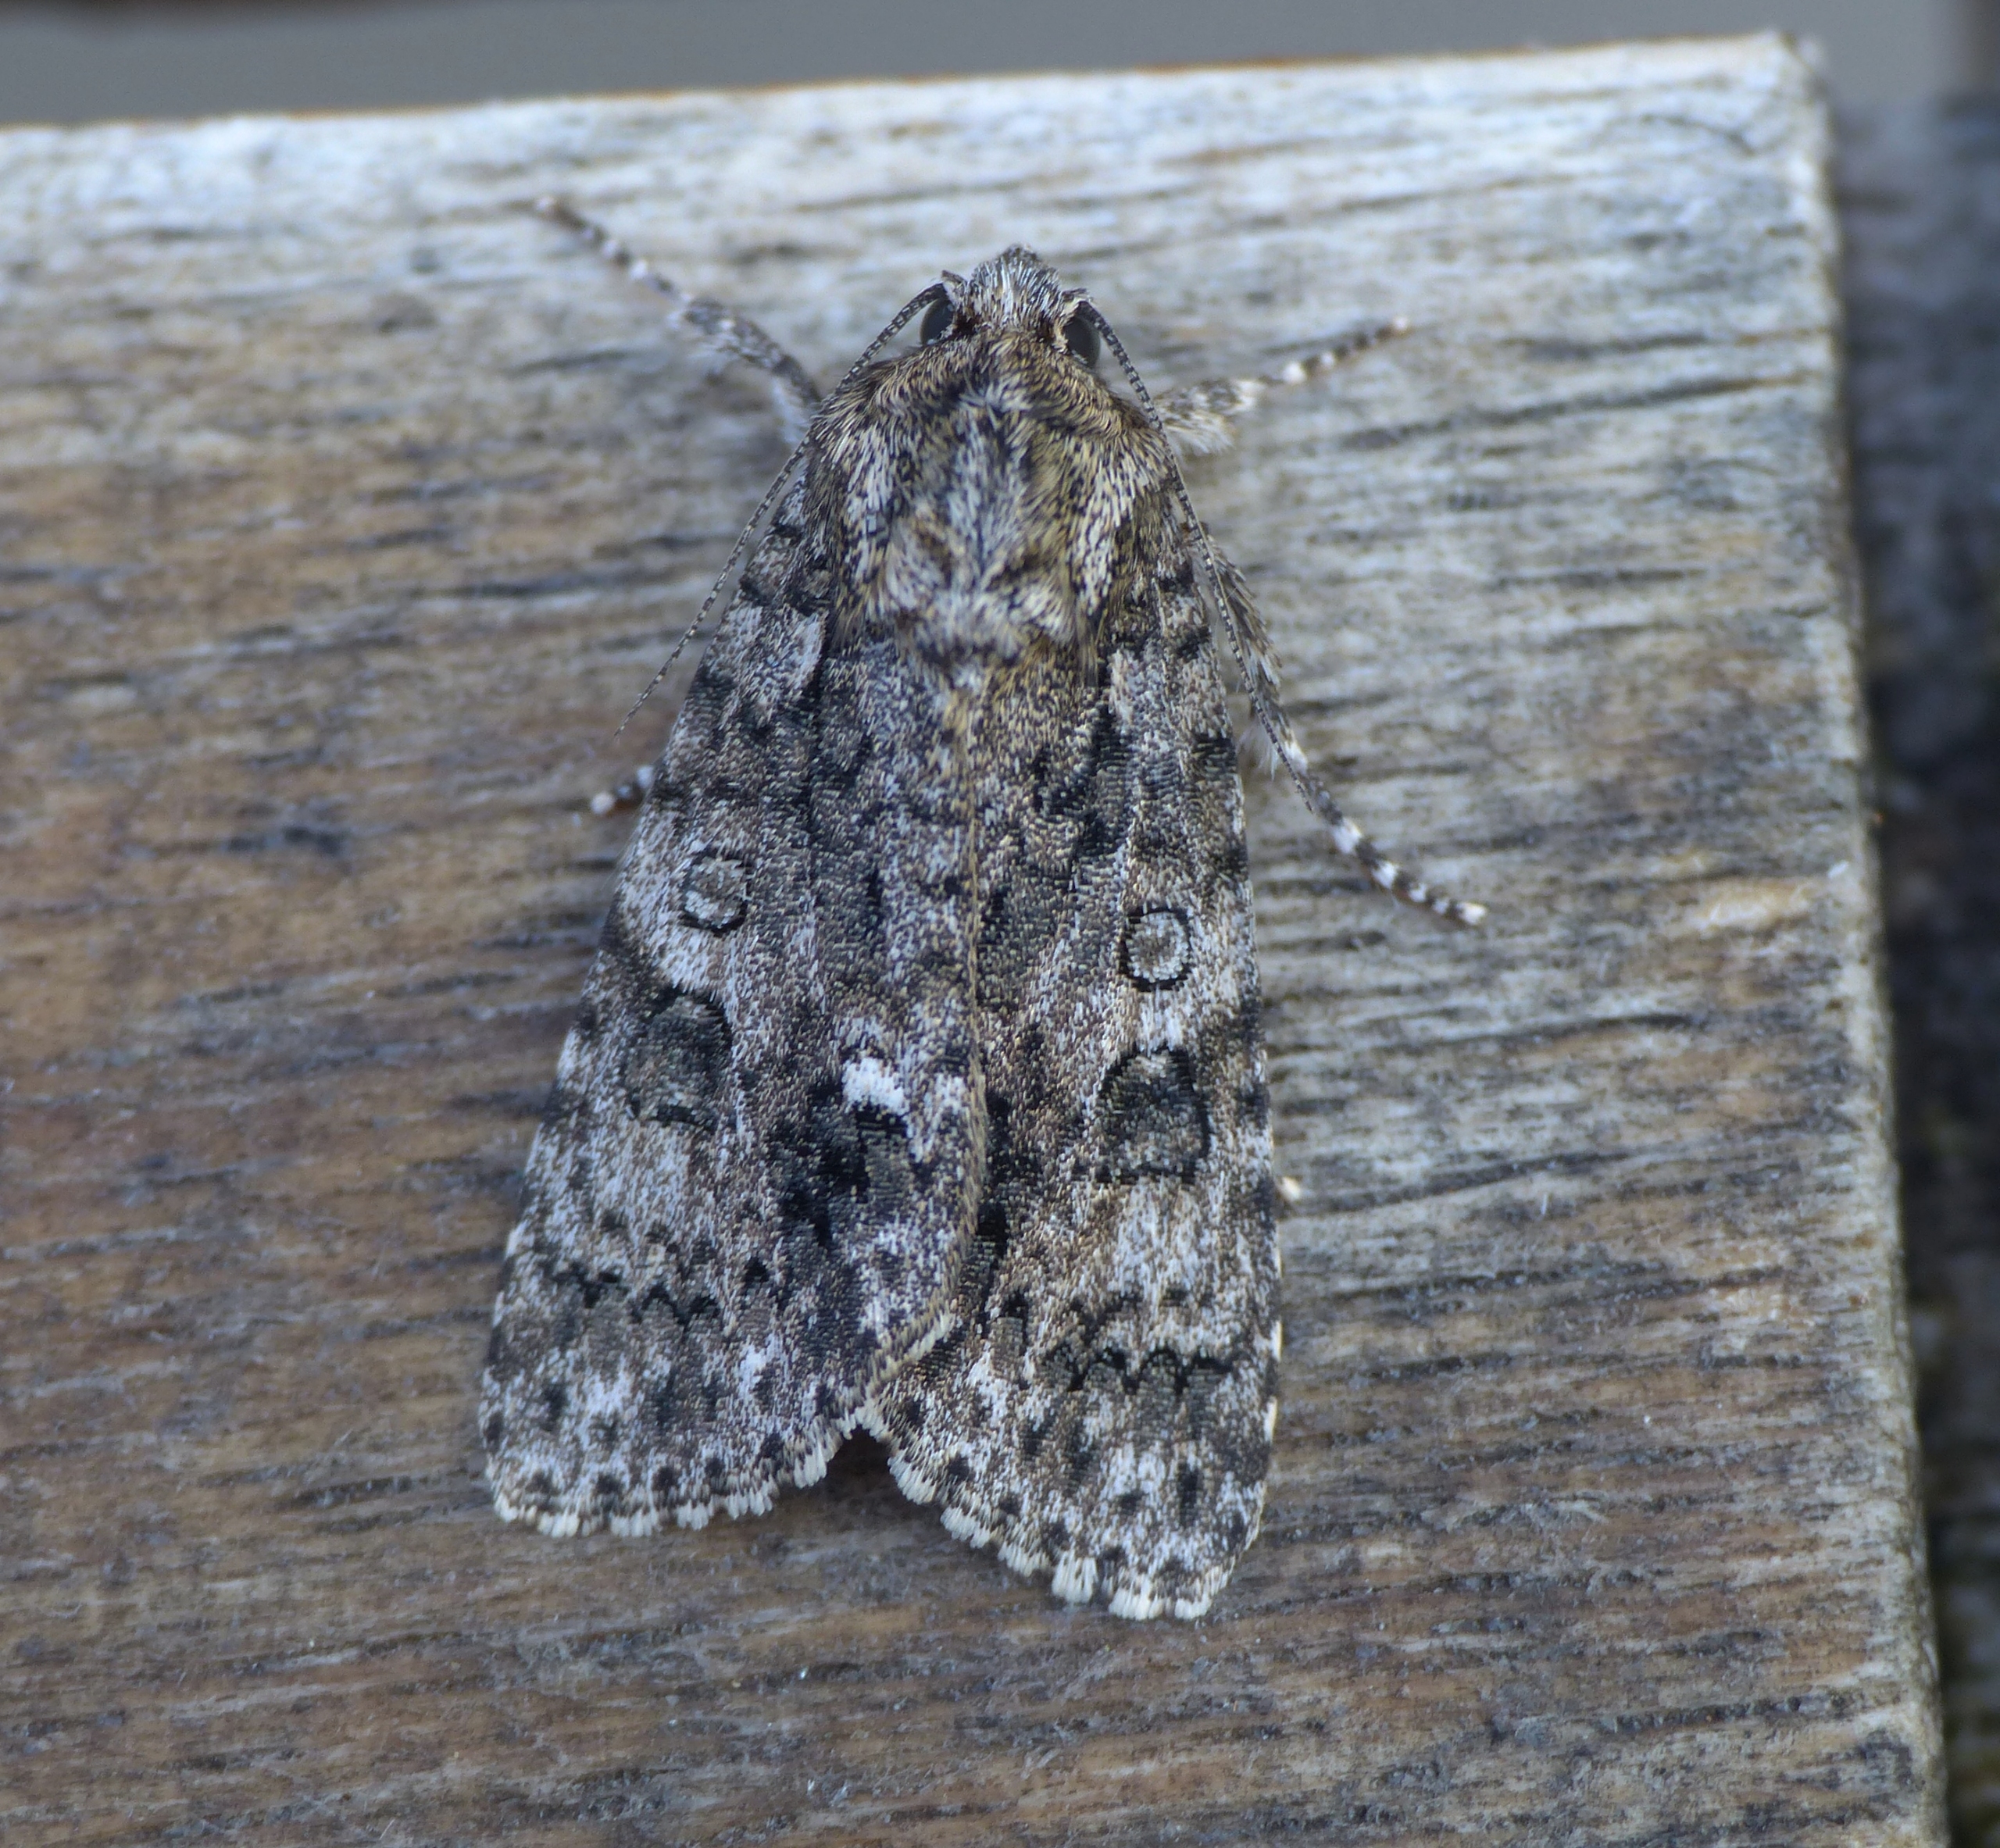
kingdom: Animalia
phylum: Arthropoda
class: Insecta
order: Lepidoptera
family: Noctuidae
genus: Acronicta
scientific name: Acronicta rumicis
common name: Syreugle
